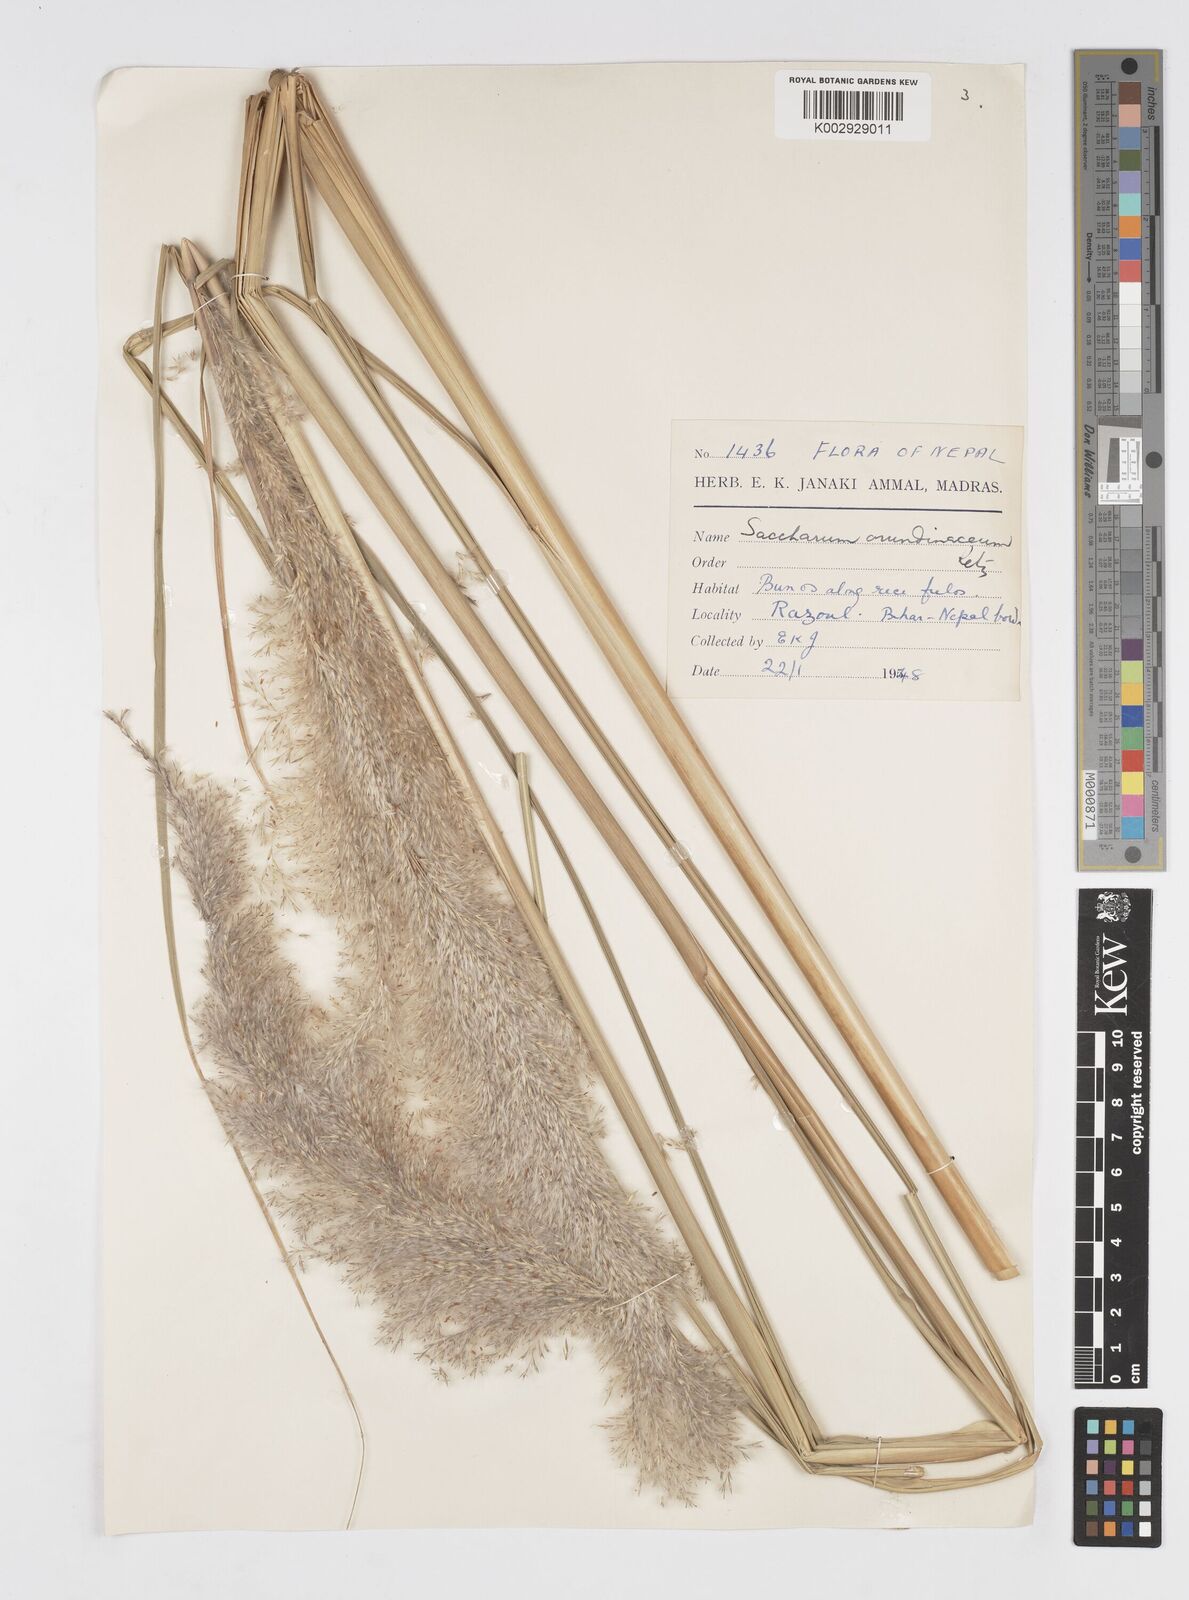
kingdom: Plantae
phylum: Tracheophyta
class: Liliopsida
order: Poales
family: Poaceae
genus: Tripidium
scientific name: Tripidium arundinaceum
